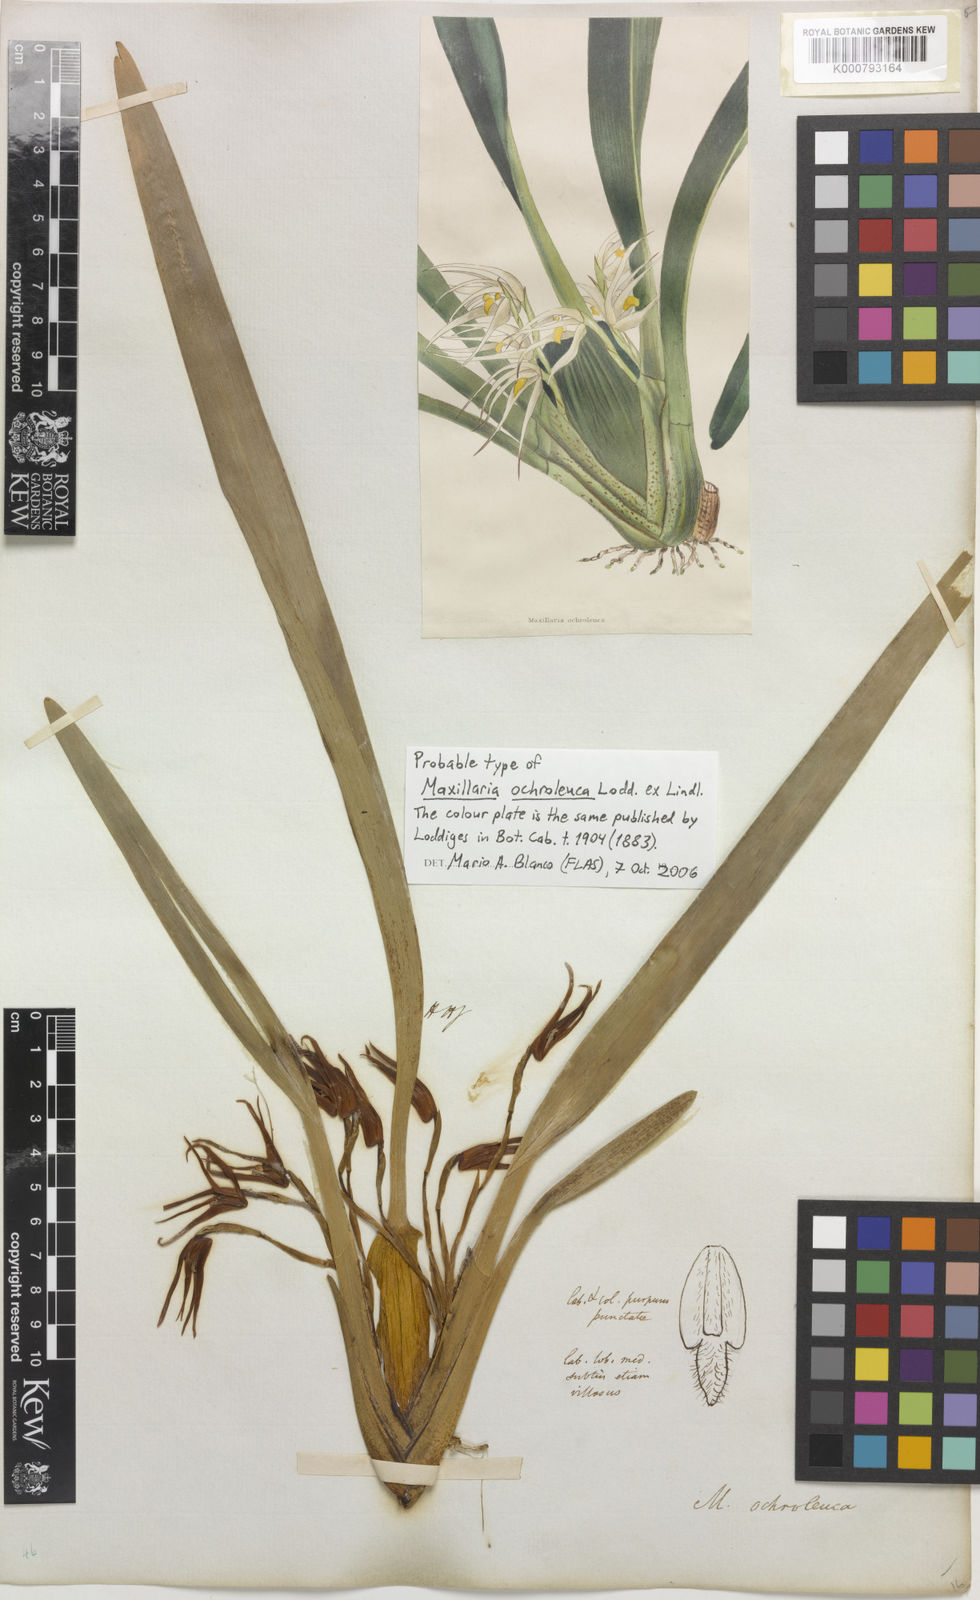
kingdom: Plantae
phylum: Tracheophyta
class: Liliopsida
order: Asparagales
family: Orchidaceae
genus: Maxillaria
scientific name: Maxillaria ochroleuca
